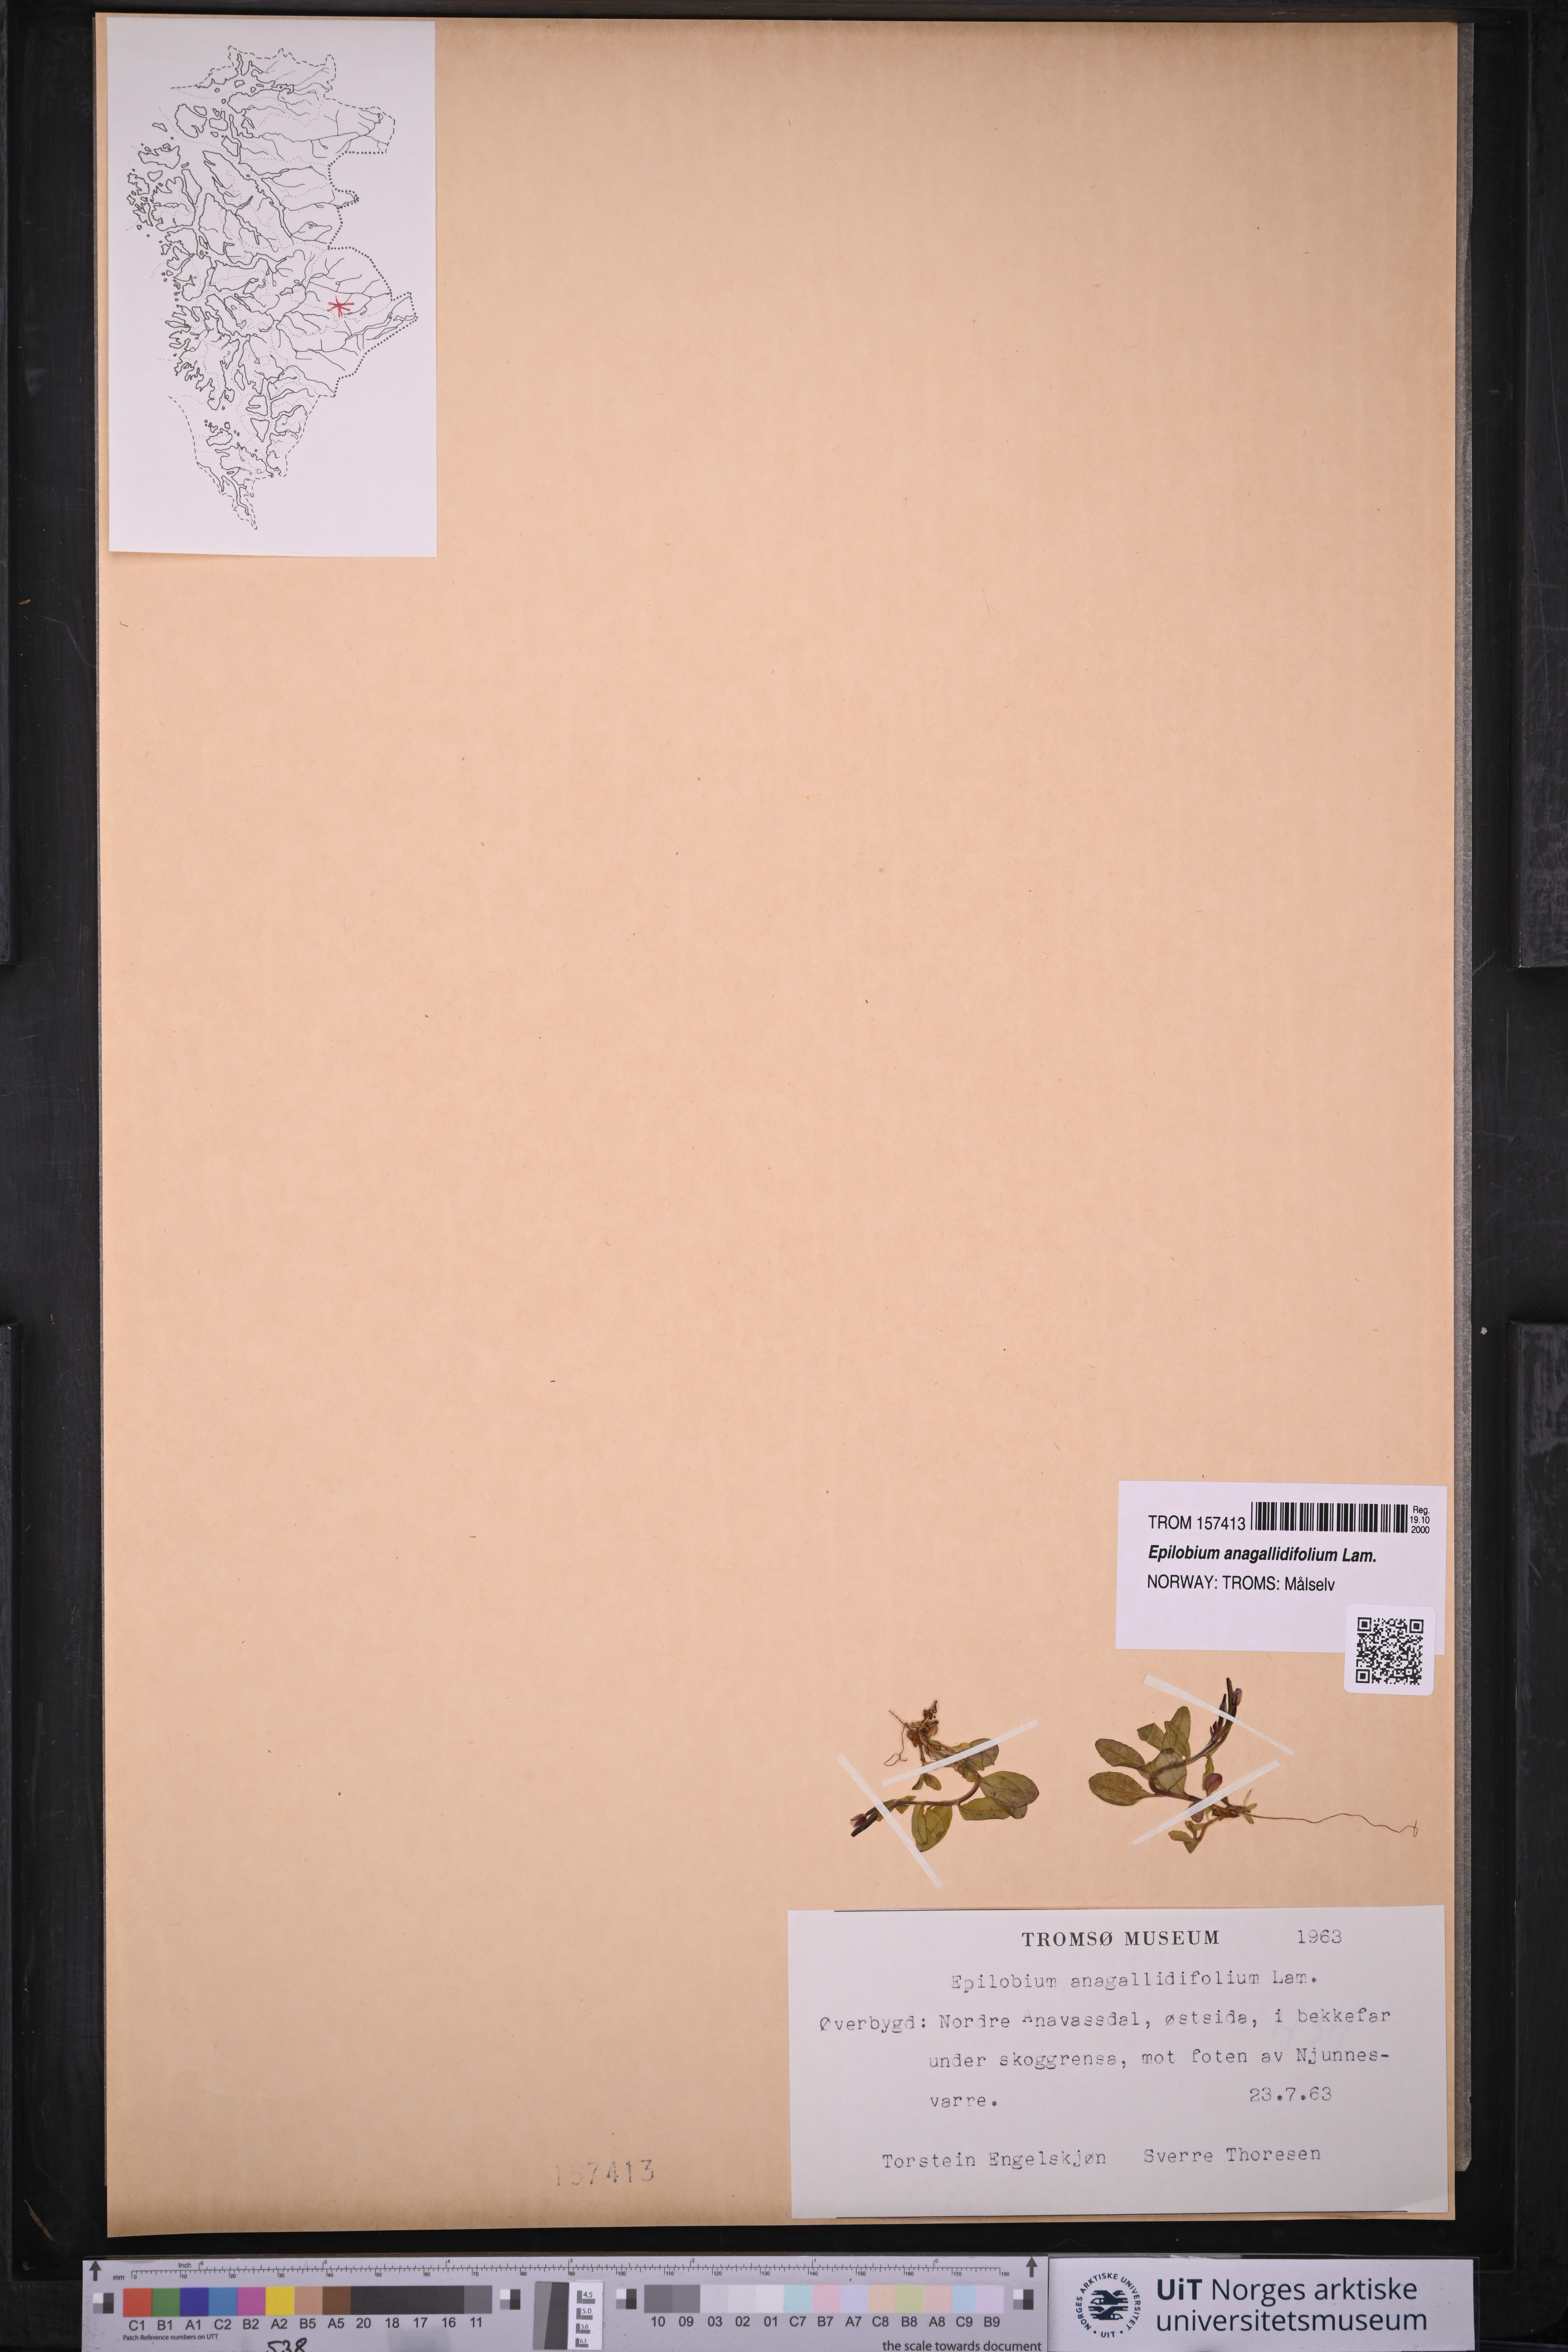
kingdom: Plantae
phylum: Tracheophyta
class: Magnoliopsida
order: Myrtales
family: Onagraceae
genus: Epilobium
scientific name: Epilobium anagallidifolium
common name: Alpine willowherb
